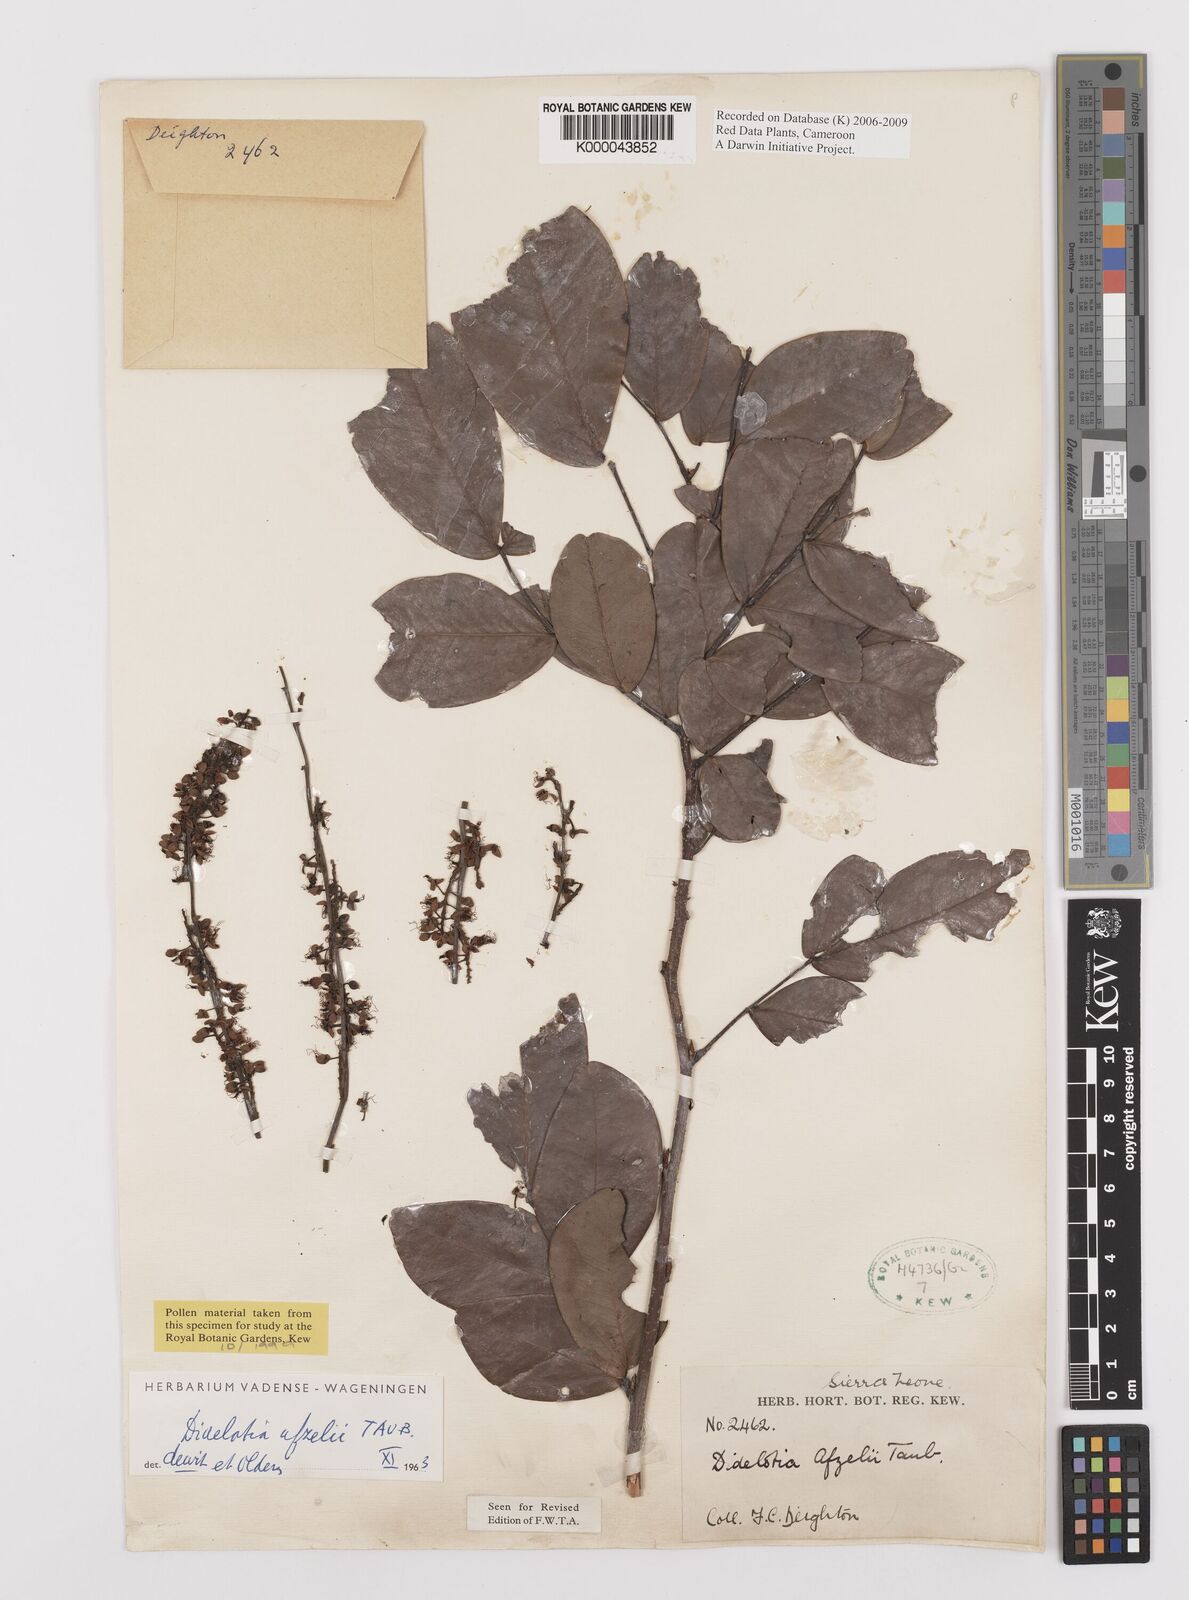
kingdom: Plantae
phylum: Tracheophyta
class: Magnoliopsida
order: Fabales
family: Fabaceae
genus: Didelotia
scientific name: Didelotia
